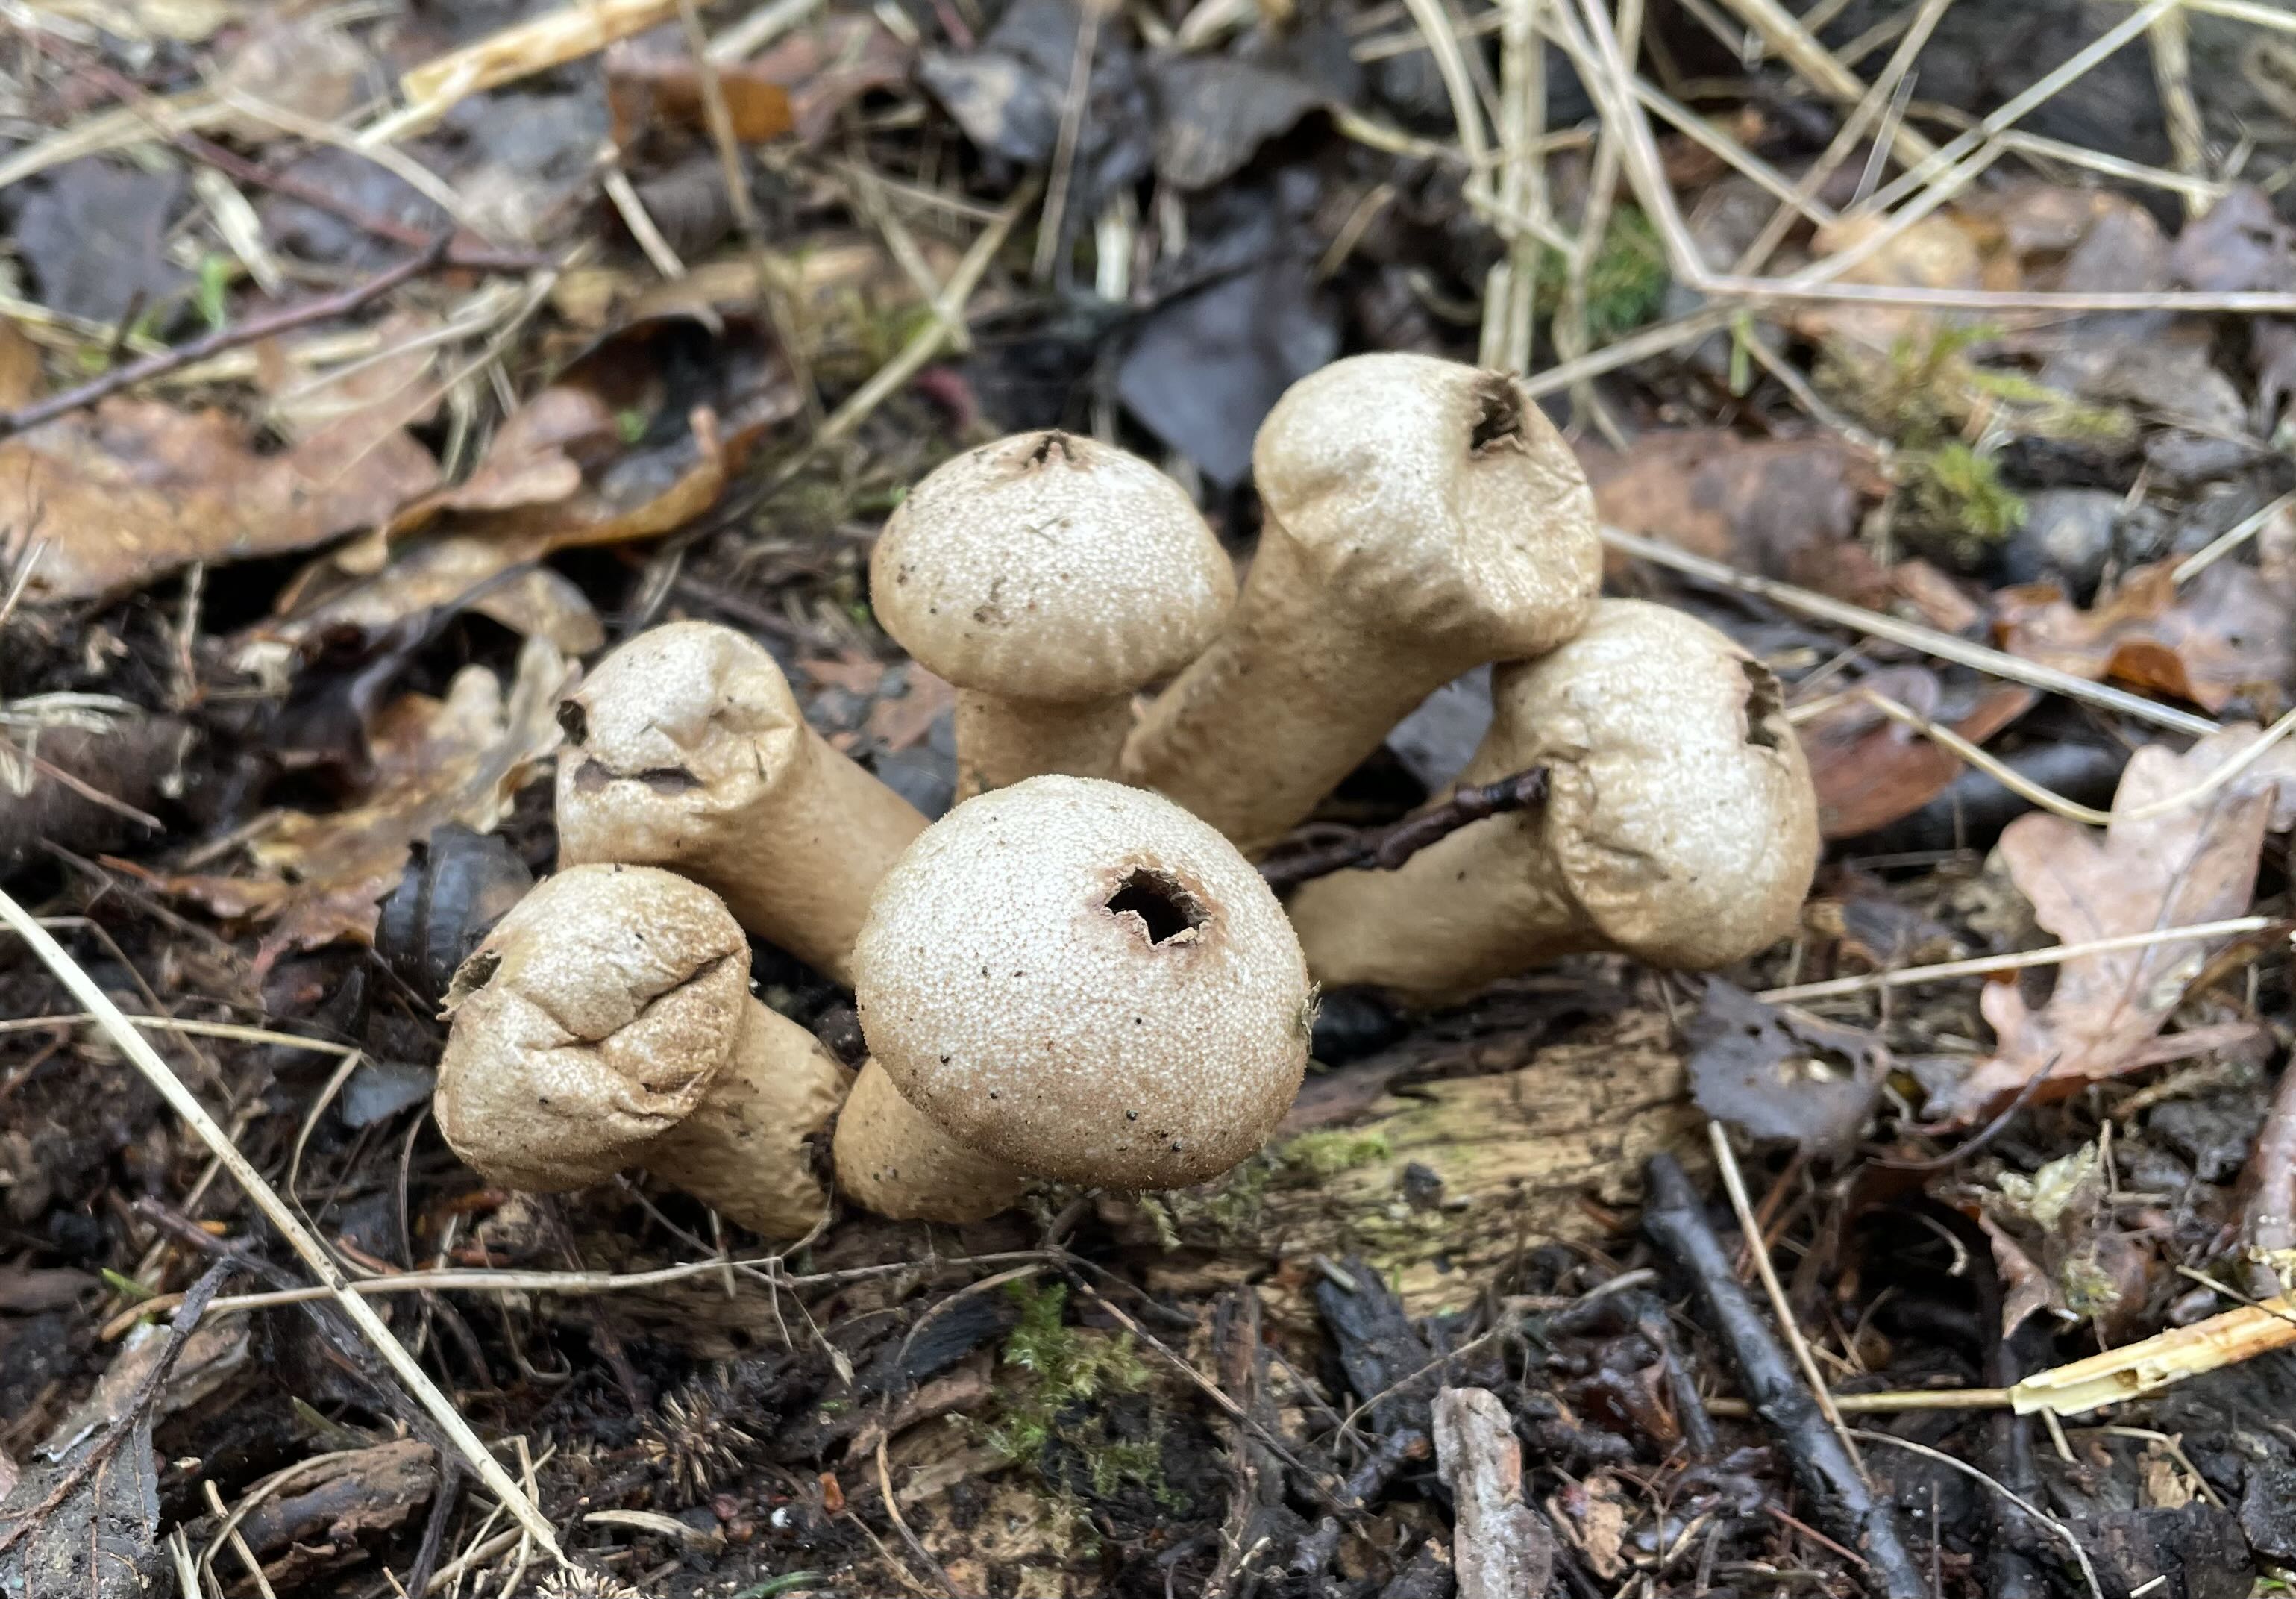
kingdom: Fungi
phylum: Basidiomycota
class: Agaricomycetes
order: Agaricales
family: Lycoperdaceae
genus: Lycoperdon
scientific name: Lycoperdon perlatum
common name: krystal-støvbold
